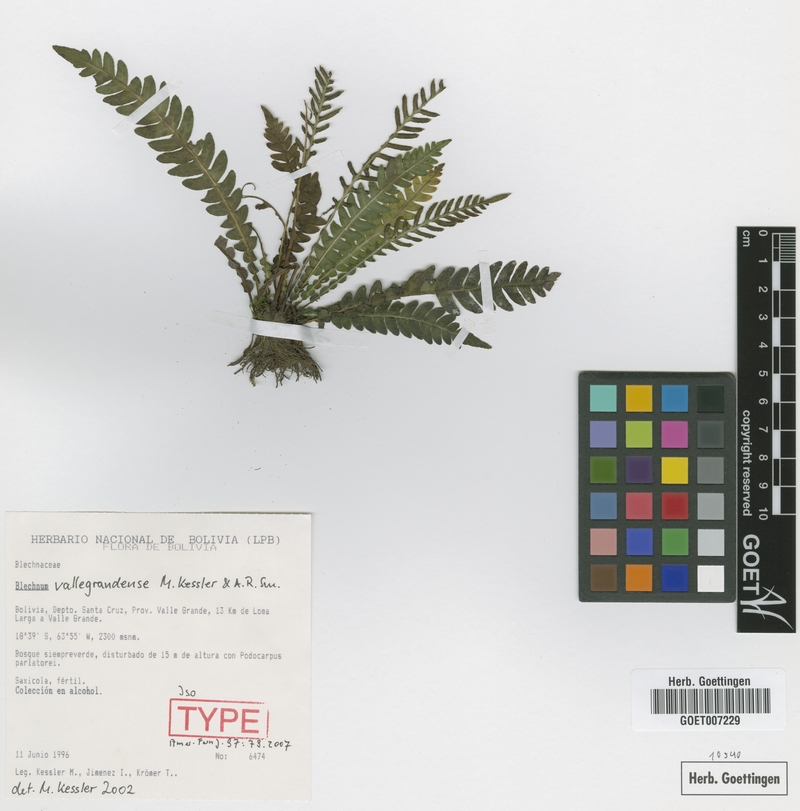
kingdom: Plantae
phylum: Tracheophyta
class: Polypodiopsida
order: Polypodiales
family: Blechnaceae
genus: Austroblechnum
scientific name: Austroblechnum vallegrandense
